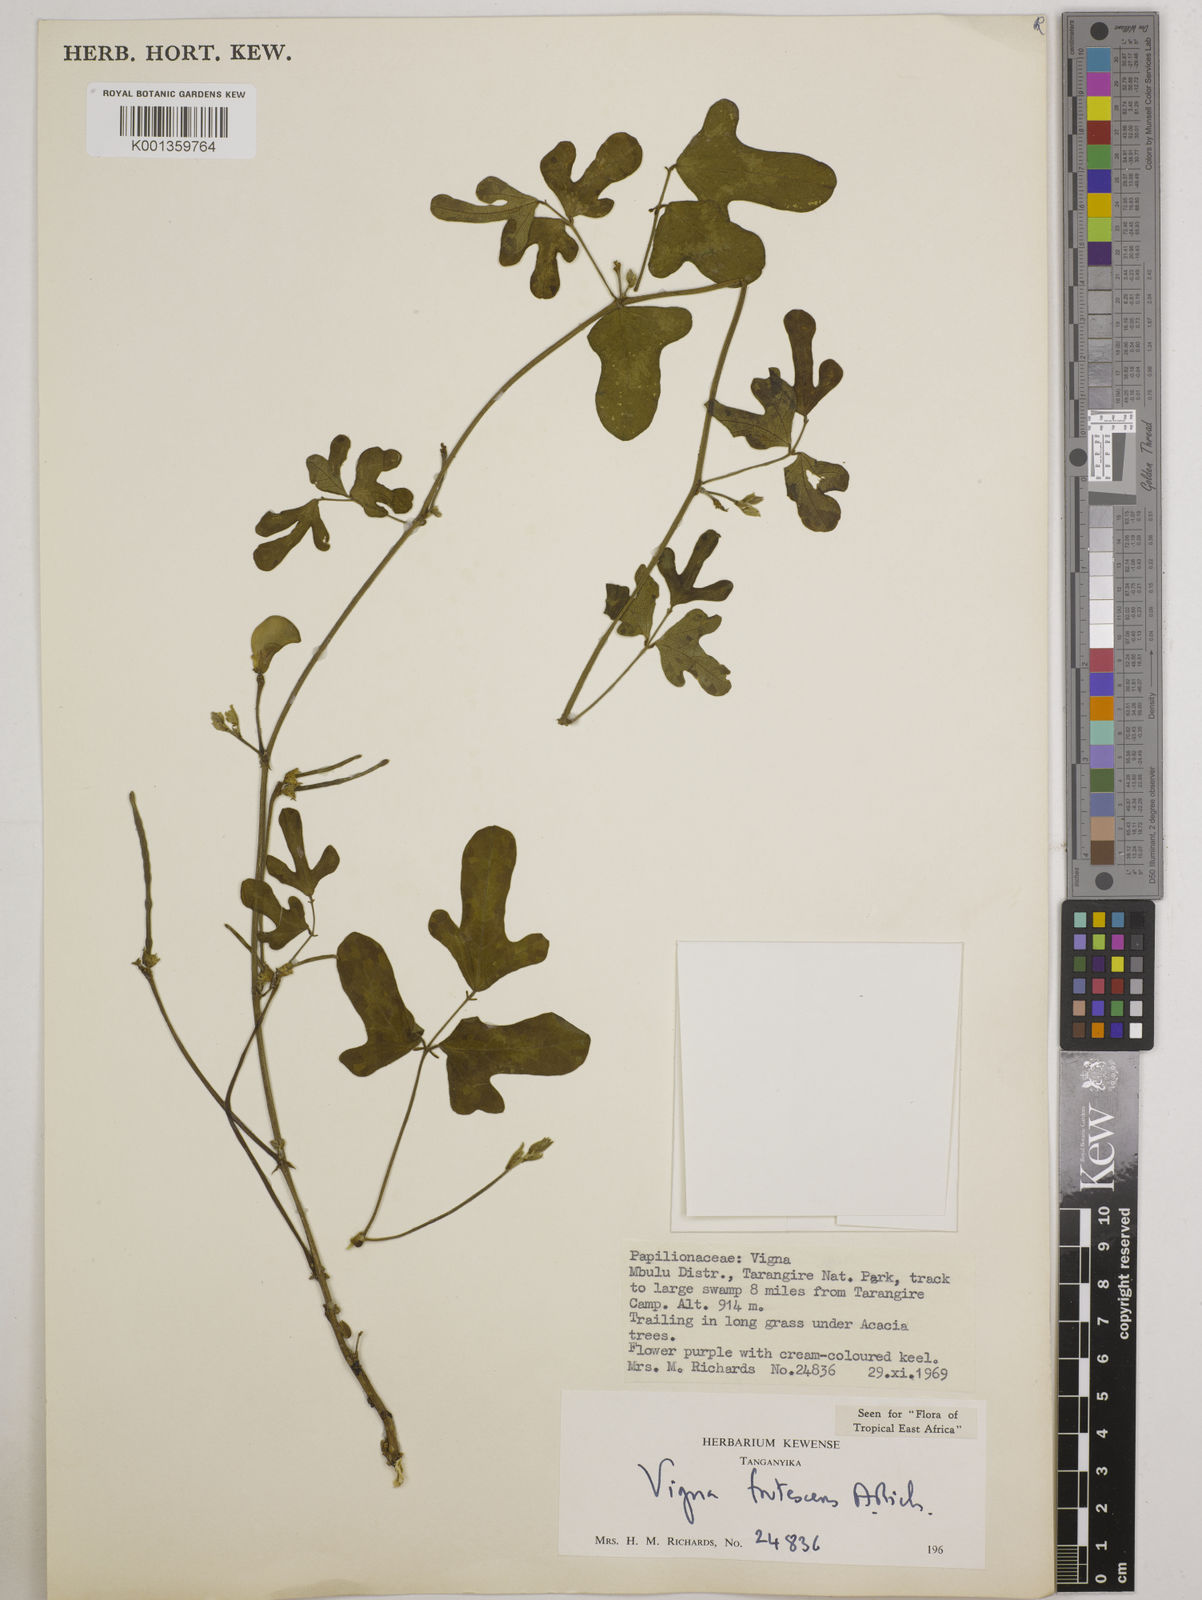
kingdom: Plantae
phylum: Tracheophyta
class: Magnoliopsida
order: Fabales
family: Fabaceae
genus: Vigna
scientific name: Vigna frutescens
